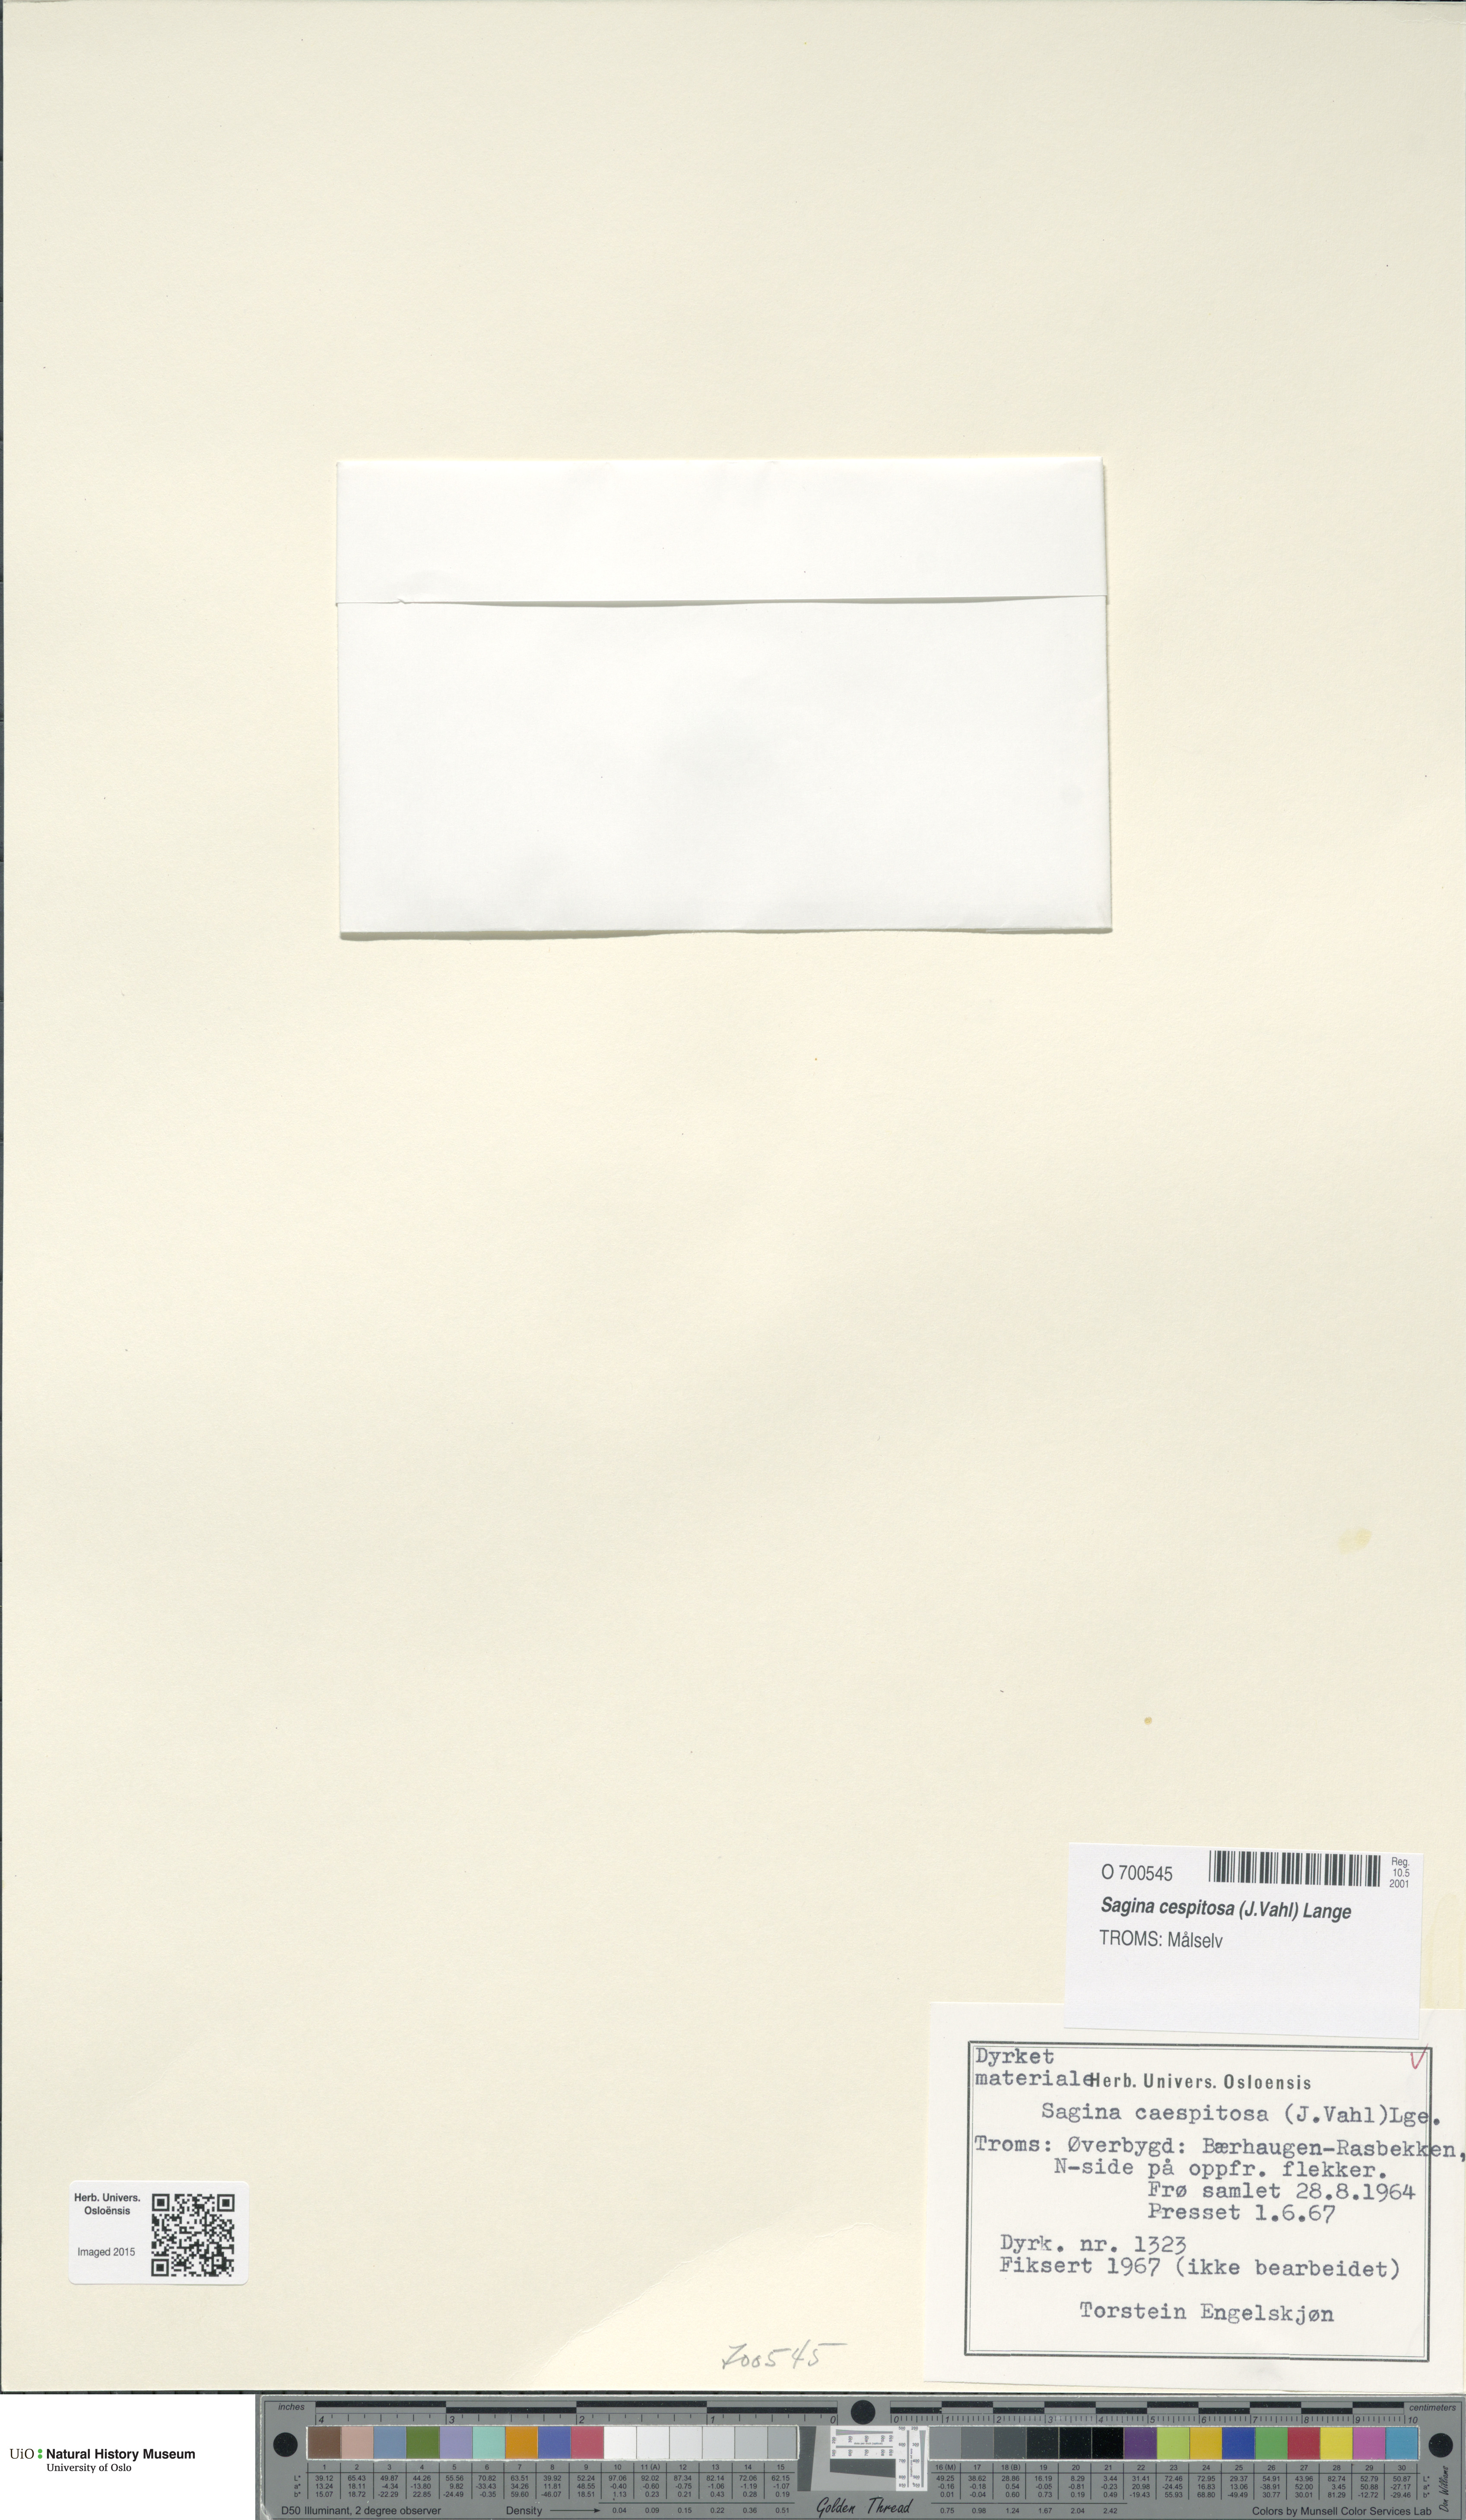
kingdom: Plantae
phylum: Tracheophyta
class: Magnoliopsida
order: Caryophyllales
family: Caryophyllaceae
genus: Sagina
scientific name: Sagina caespitosa
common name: Tufted pearlwort
